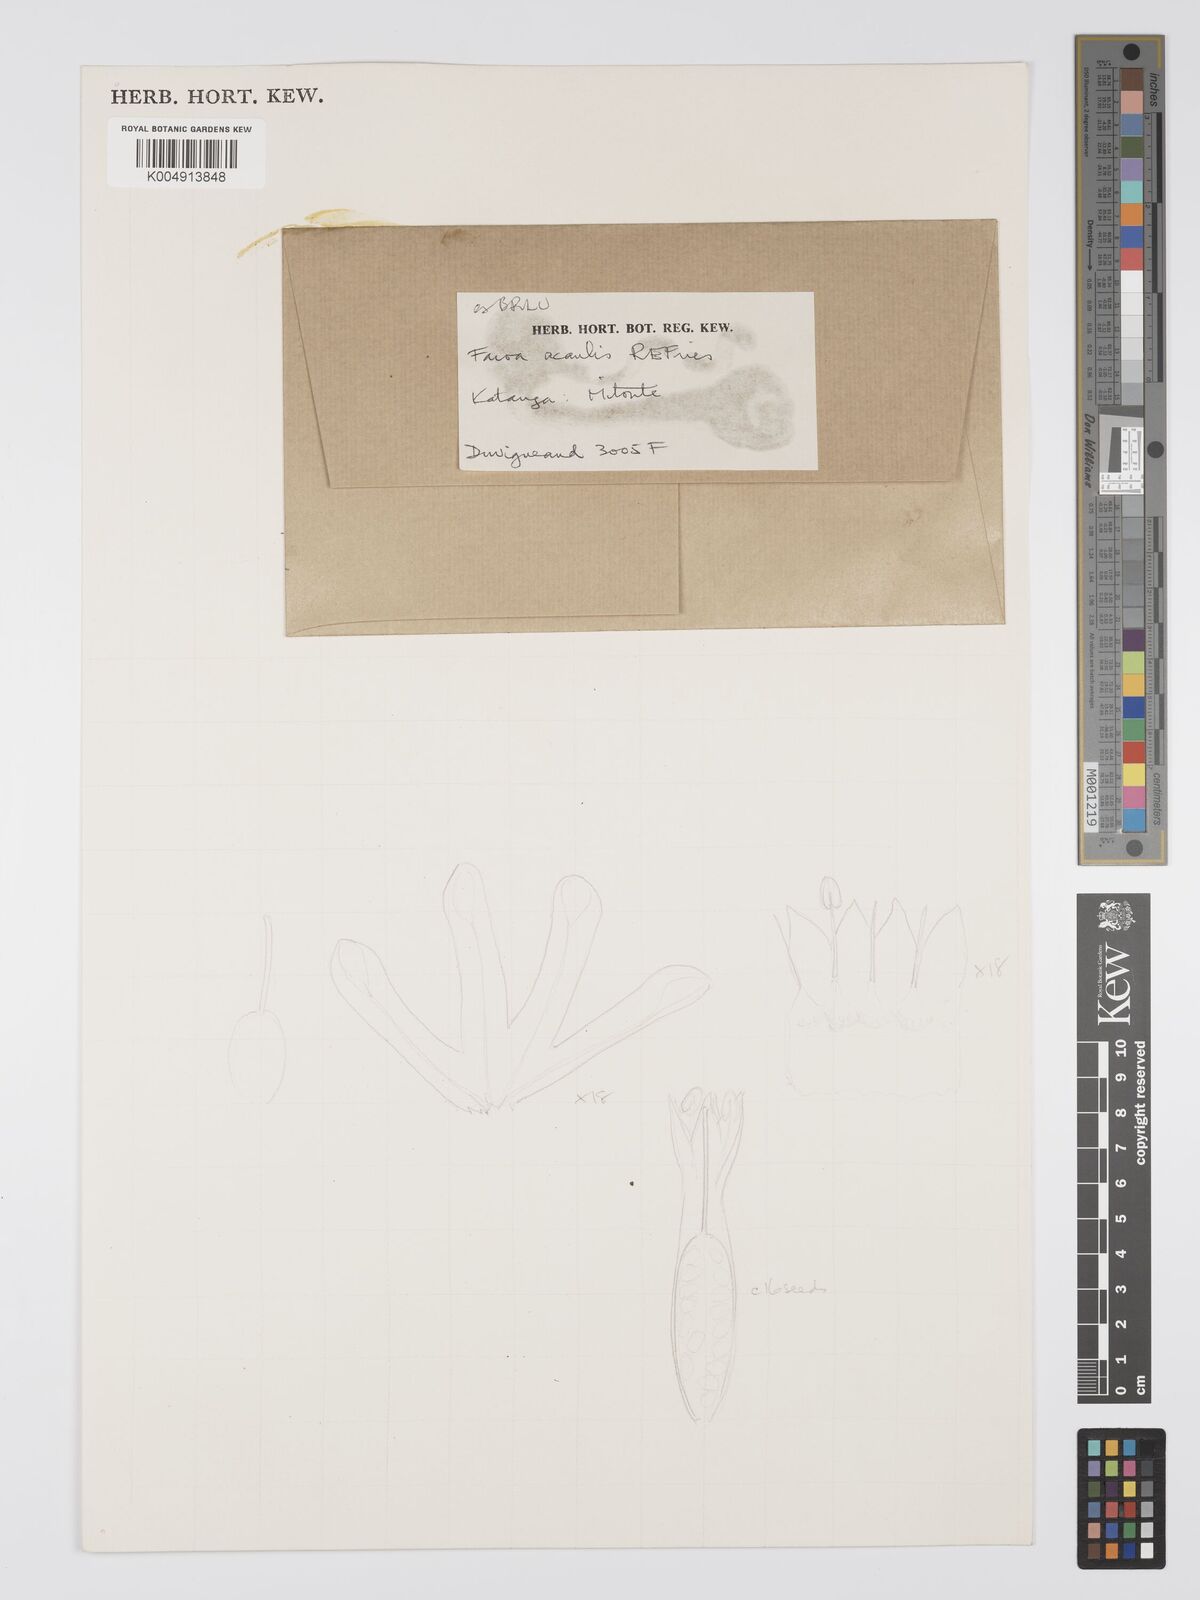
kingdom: Plantae
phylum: Tracheophyta
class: Magnoliopsida
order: Gentianales
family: Gentianaceae
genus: Faroa
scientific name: Faroa acaulis
